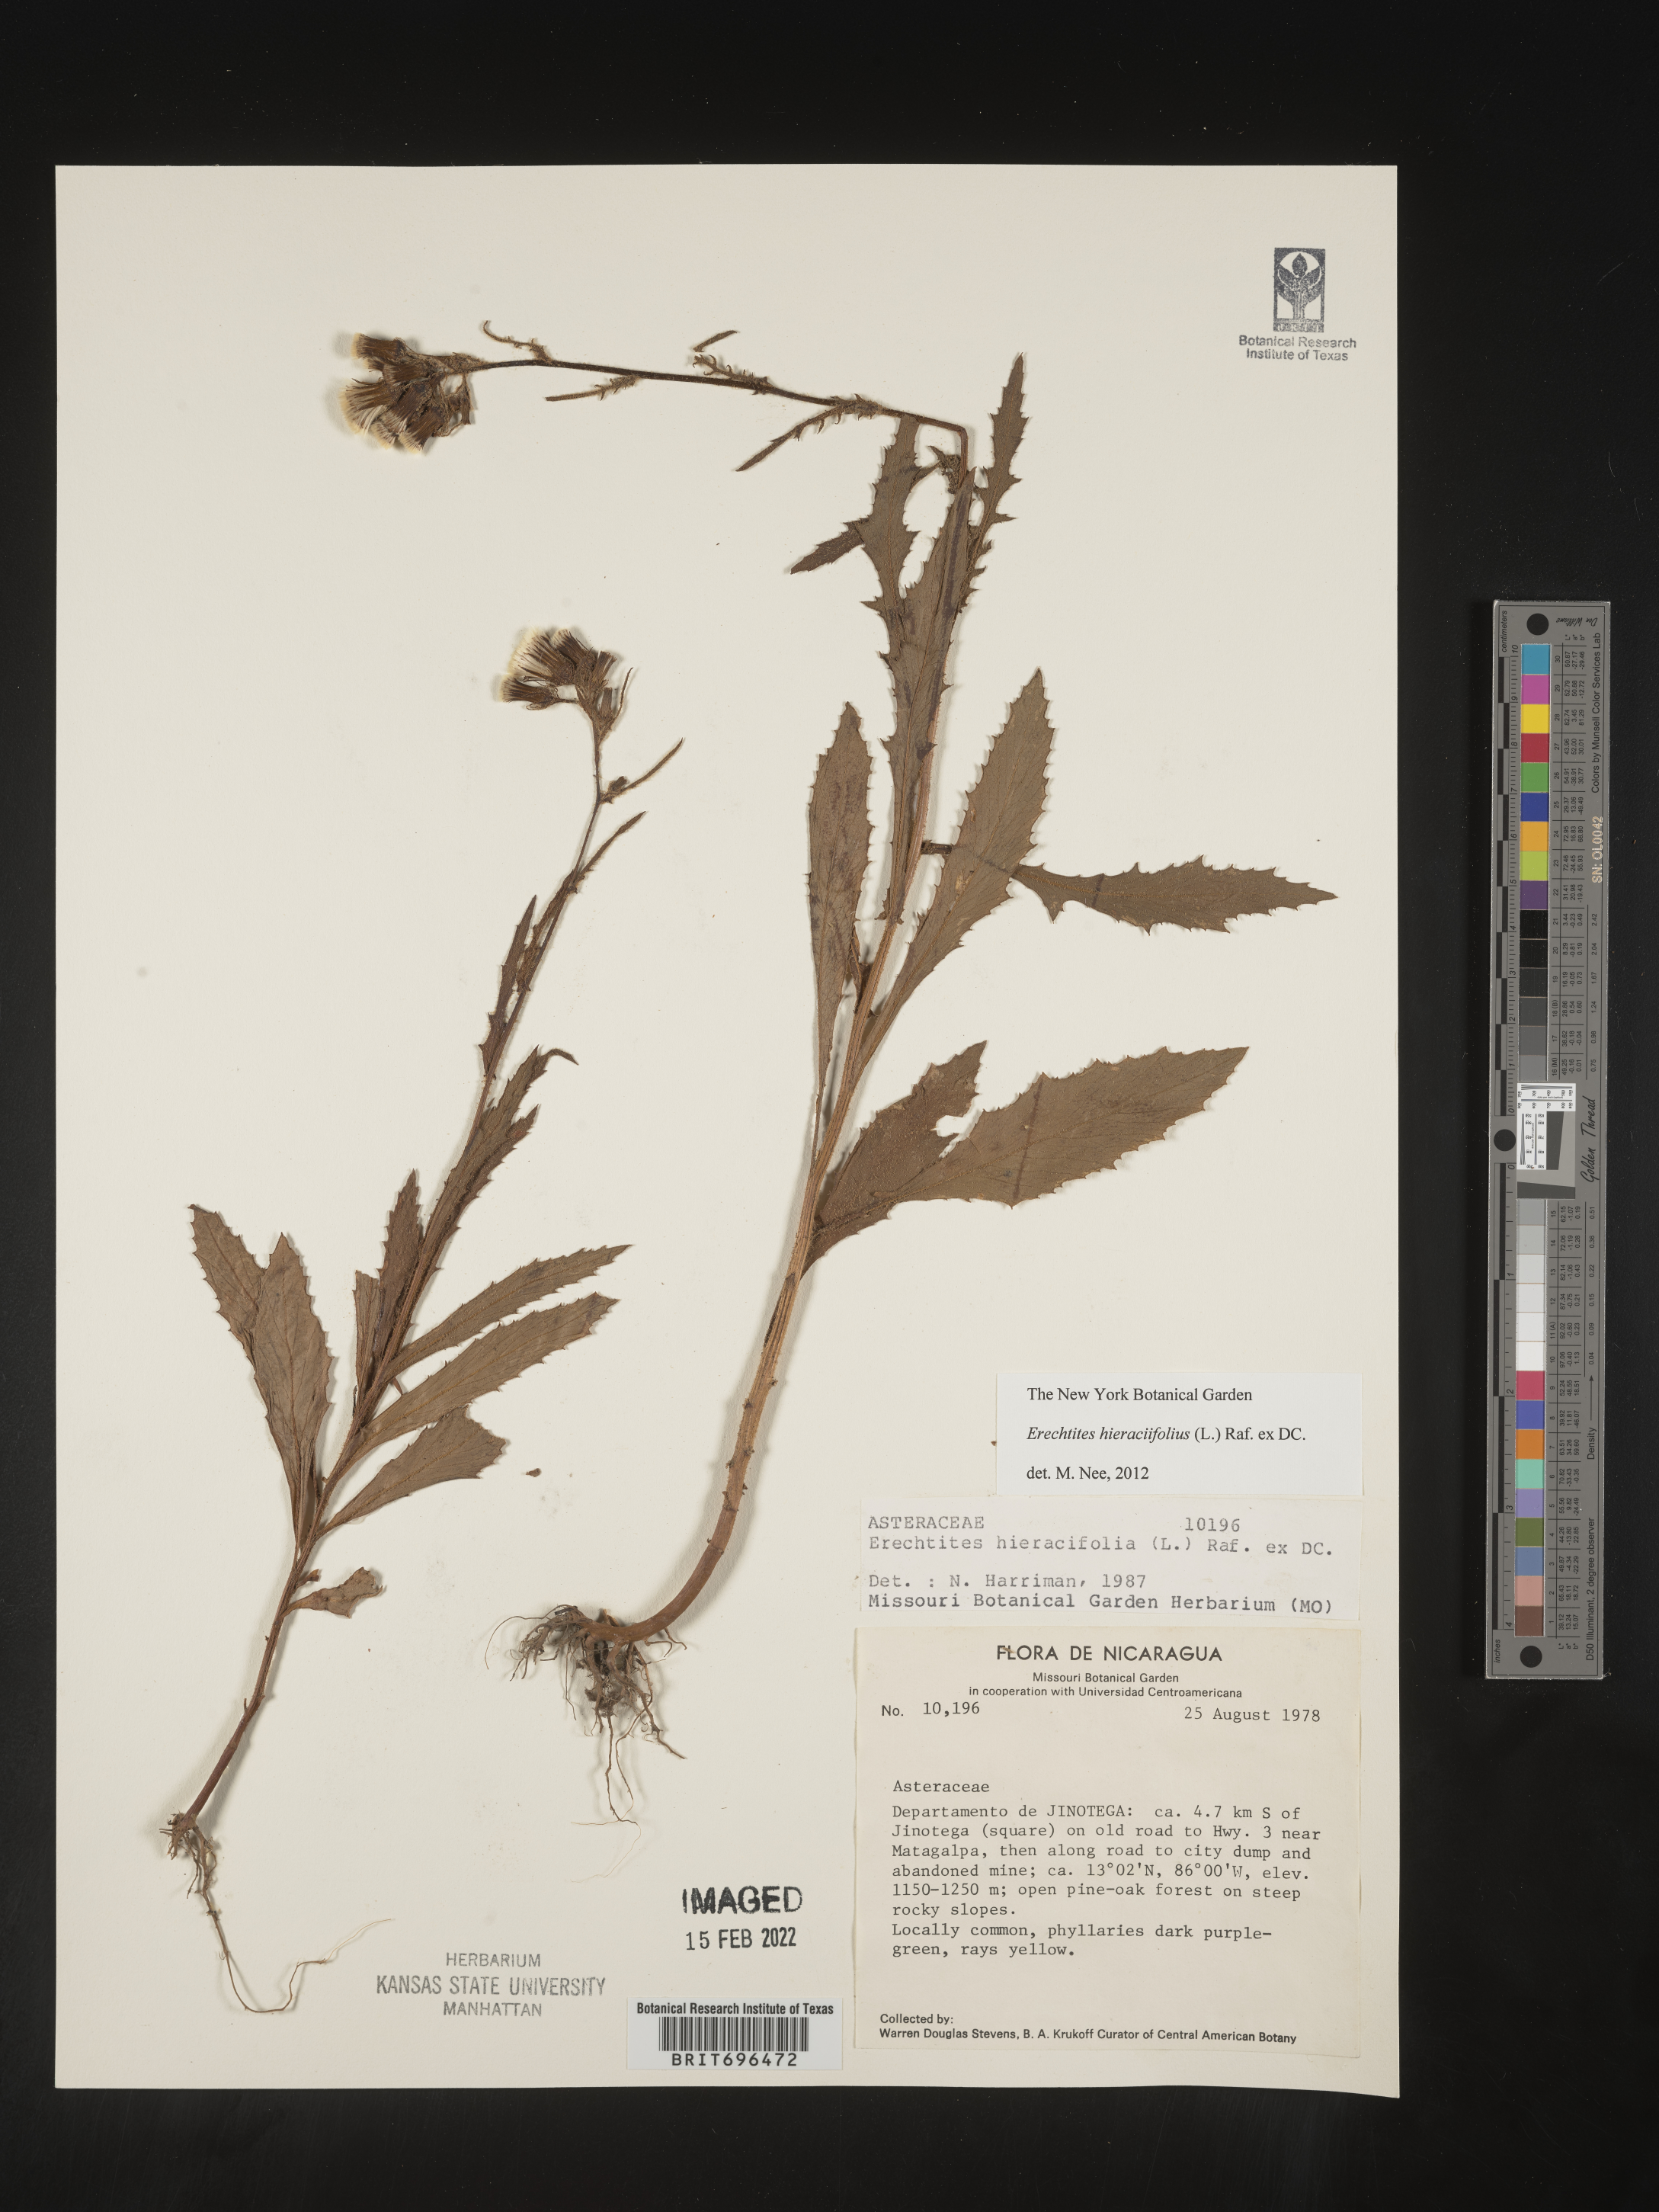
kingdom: Plantae
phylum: Tracheophyta
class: Magnoliopsida
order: Asterales
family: Asteraceae
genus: Erechtites
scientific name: Erechtites
